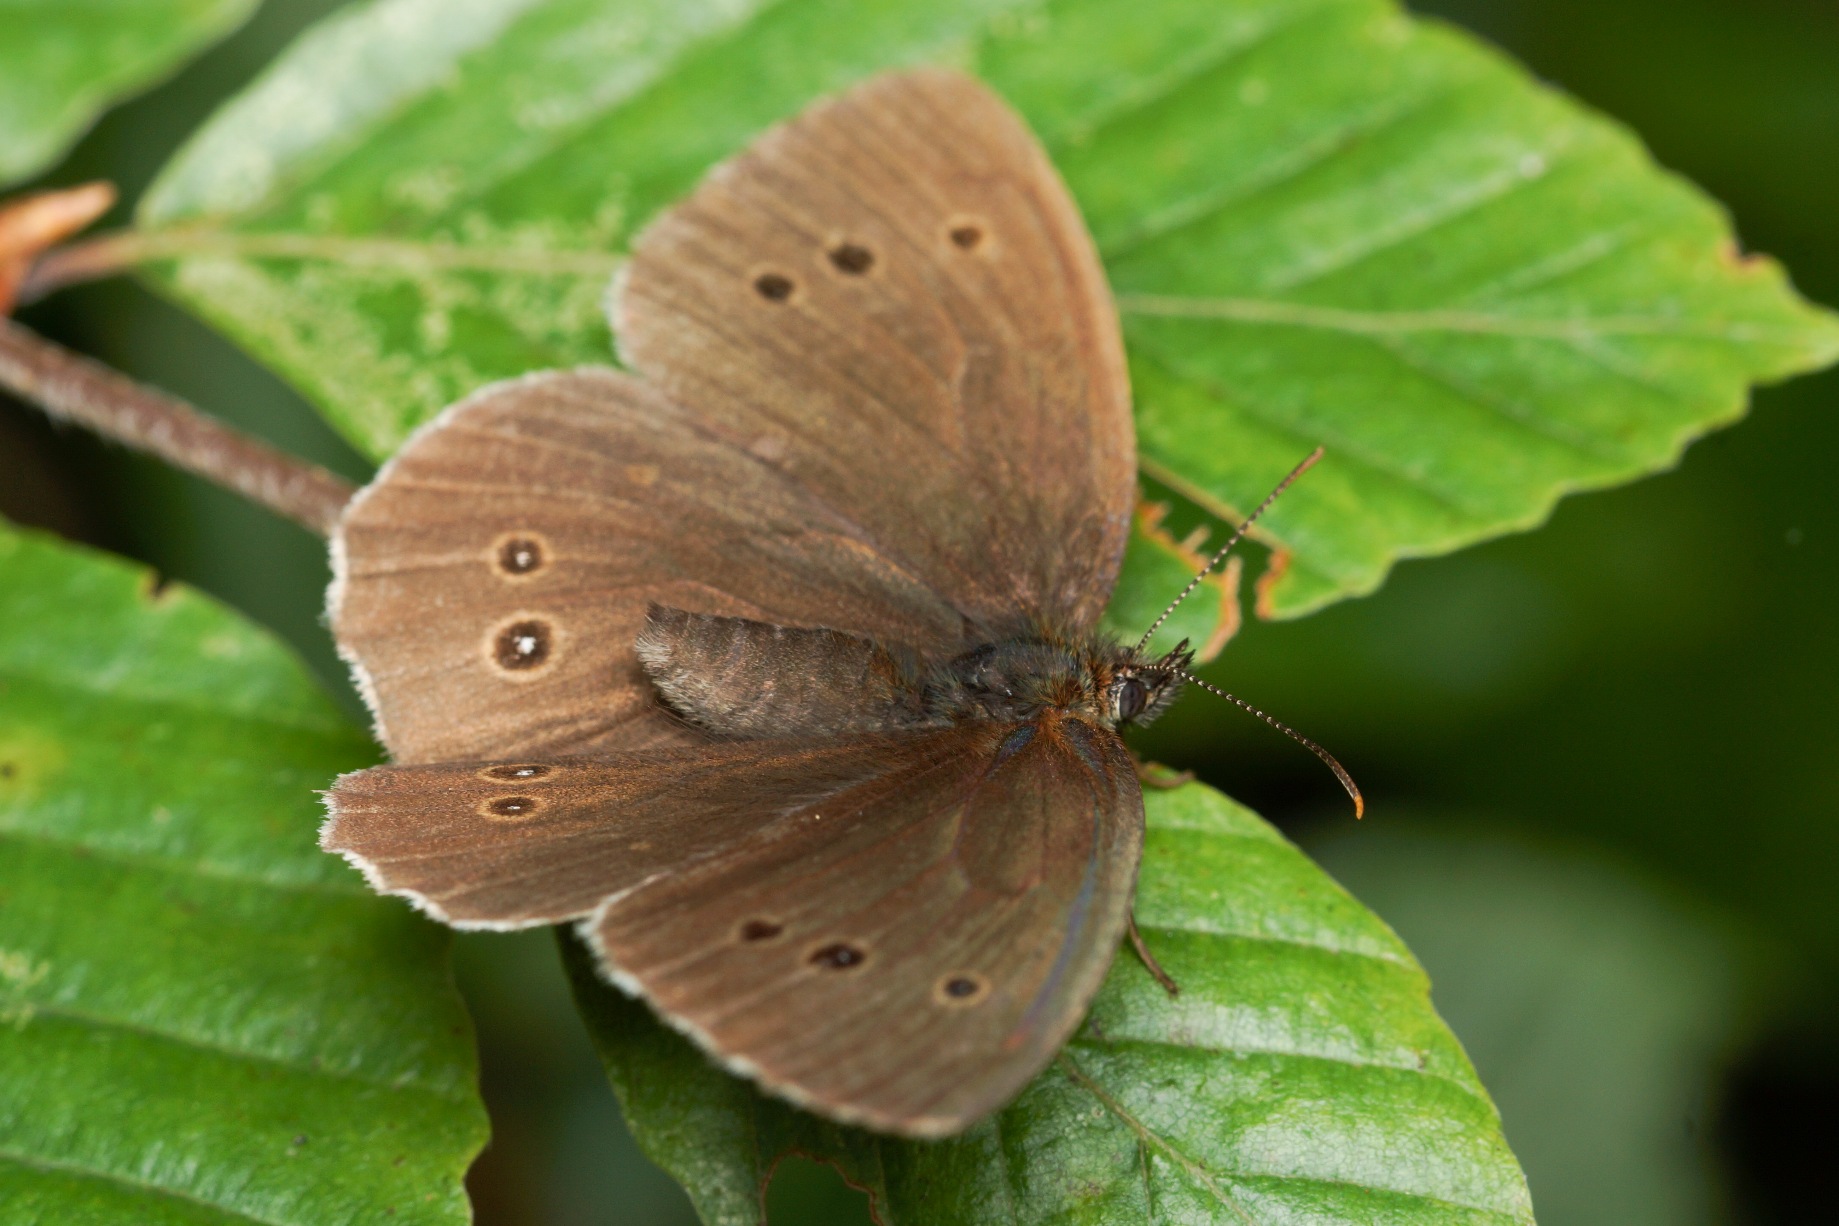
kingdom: Animalia
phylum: Arthropoda
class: Insecta
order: Lepidoptera
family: Nymphalidae
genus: Aphantopus
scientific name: Aphantopus hyperantus
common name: Engrandøje
